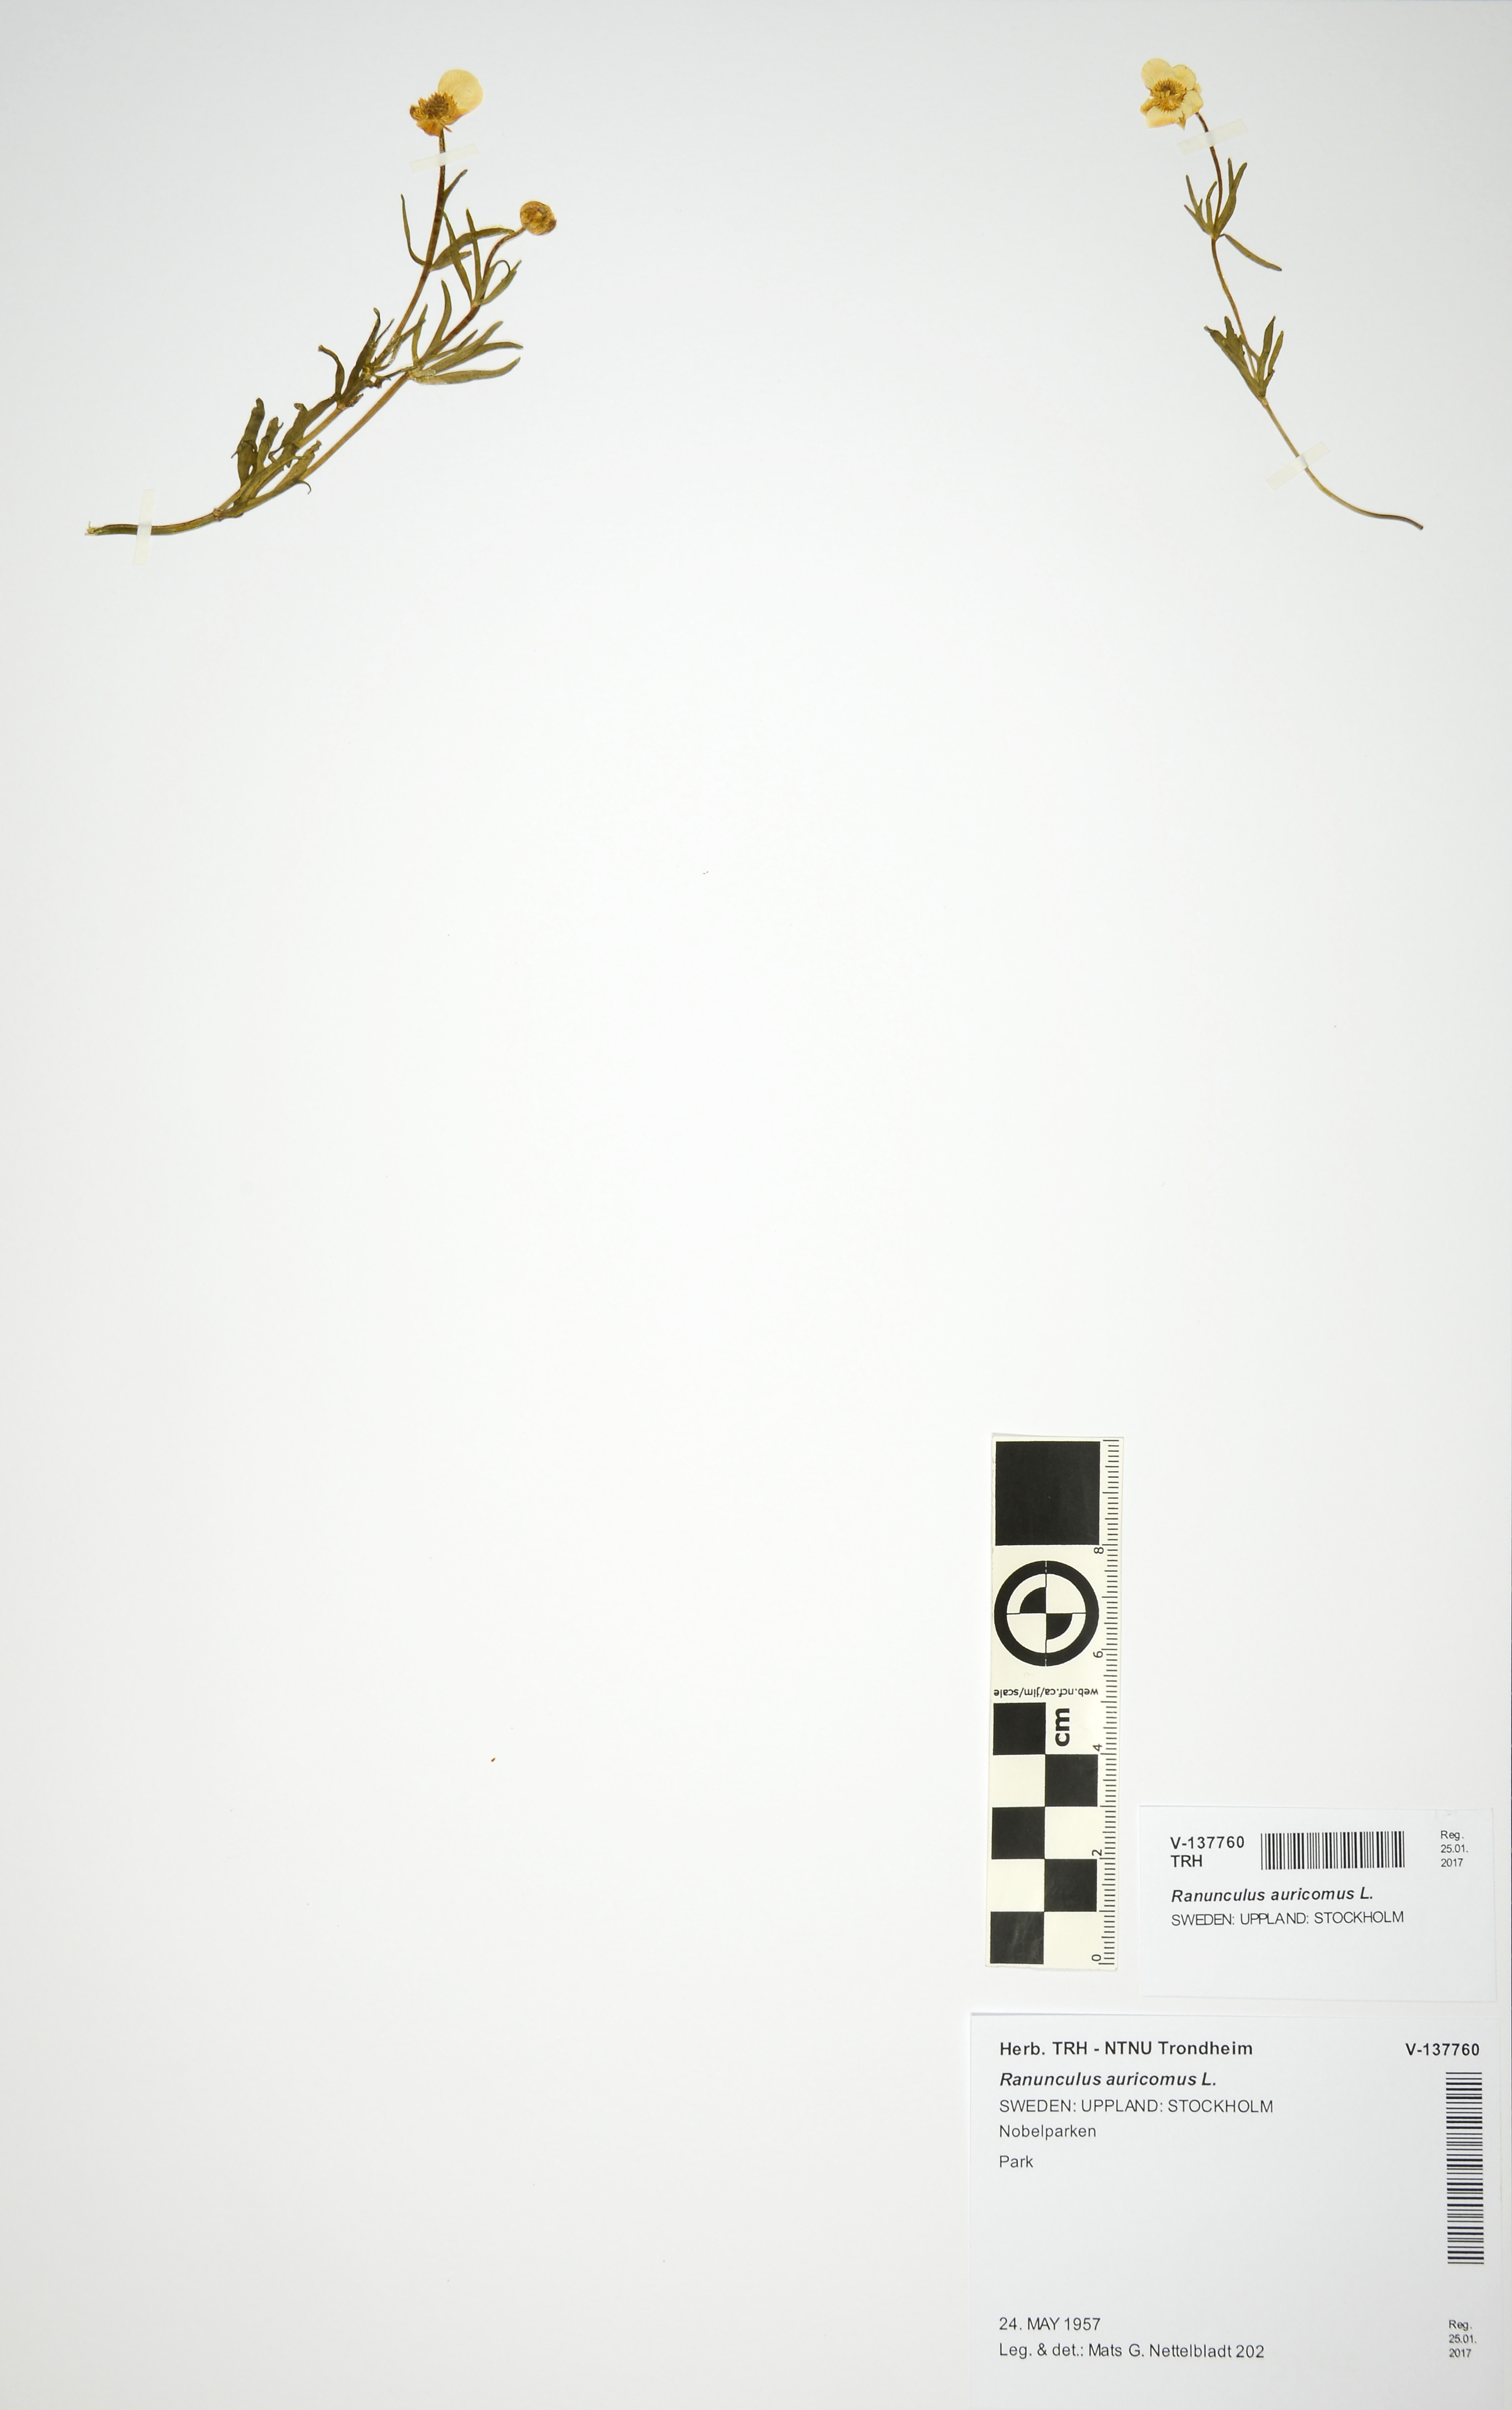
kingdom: Plantae
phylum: Tracheophyta
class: Magnoliopsida
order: Ranunculales
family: Ranunculaceae
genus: Ranunculus
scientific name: Ranunculus auricomus
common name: Goldilocks buttercup
